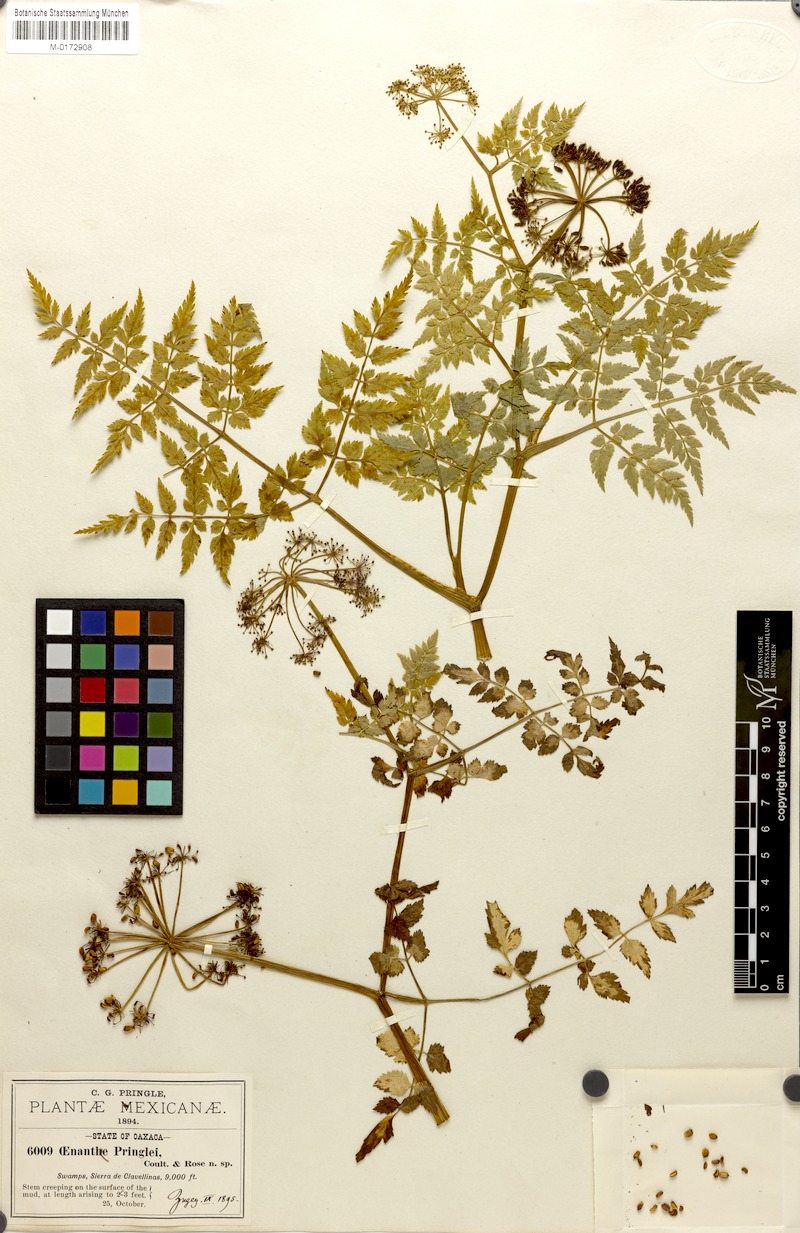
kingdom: Plantae
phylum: Tracheophyta
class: Magnoliopsida
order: Apiales
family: Apiaceae
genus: Oenanthe
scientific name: Oenanthe pringlei
